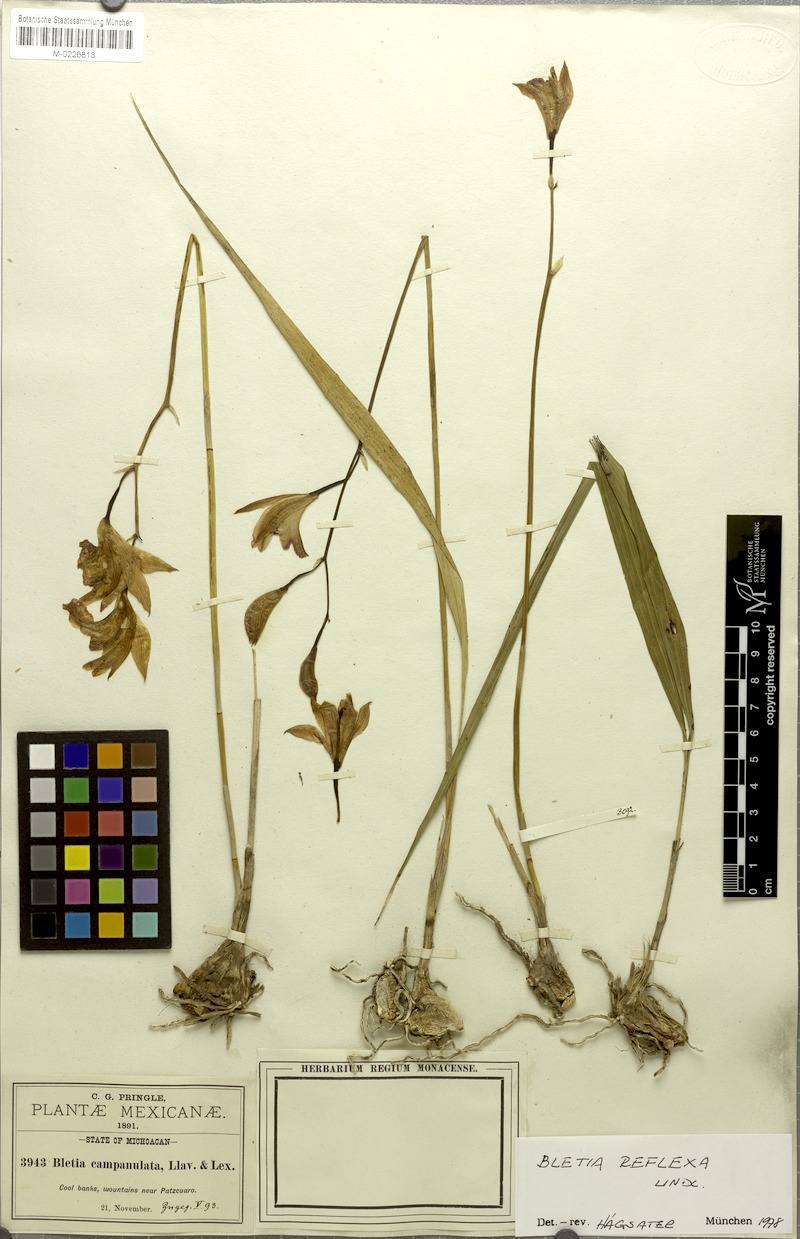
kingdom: Plantae
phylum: Tracheophyta
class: Liliopsida
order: Asparagales
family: Orchidaceae
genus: Bletia
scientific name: Bletia reflexa
